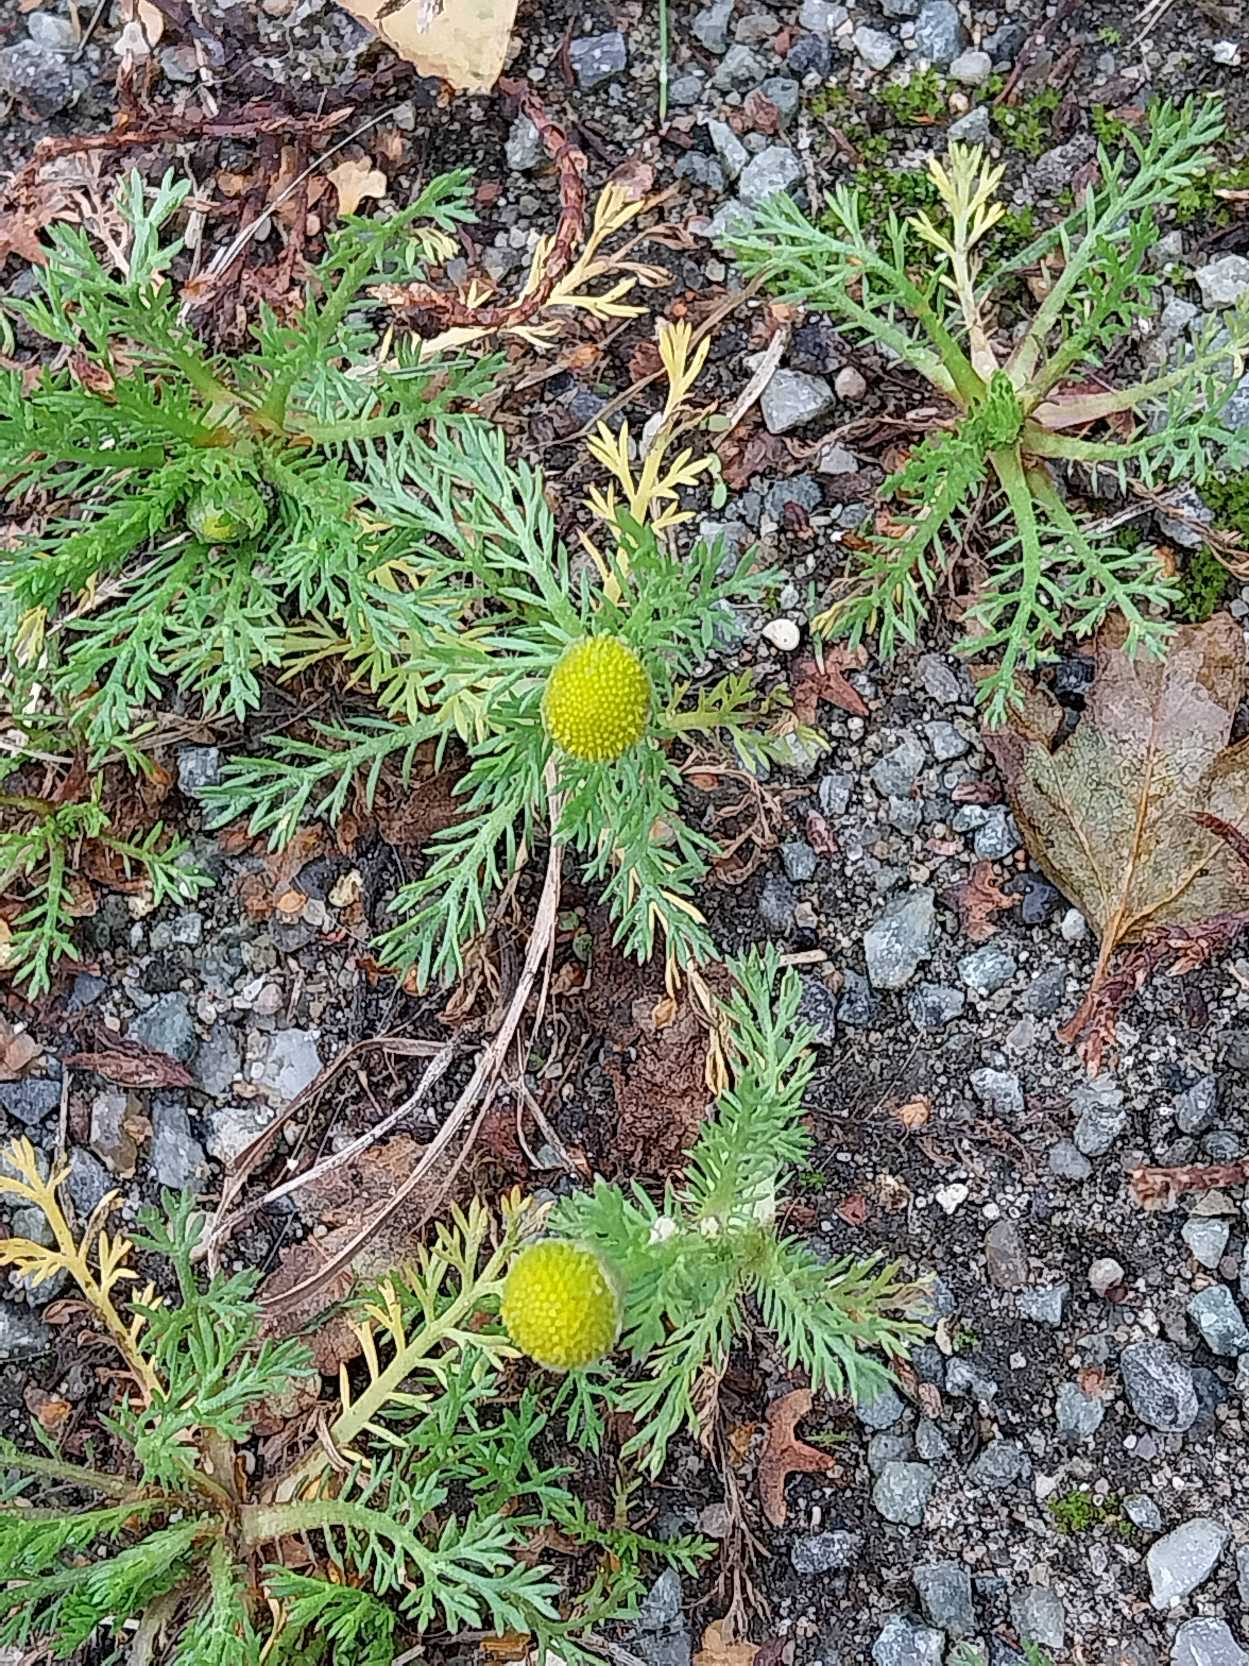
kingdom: Plantae
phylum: Tracheophyta
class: Magnoliopsida
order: Asterales
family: Asteraceae
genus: Matricaria
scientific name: Matricaria discoidea
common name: Skive-kamille
